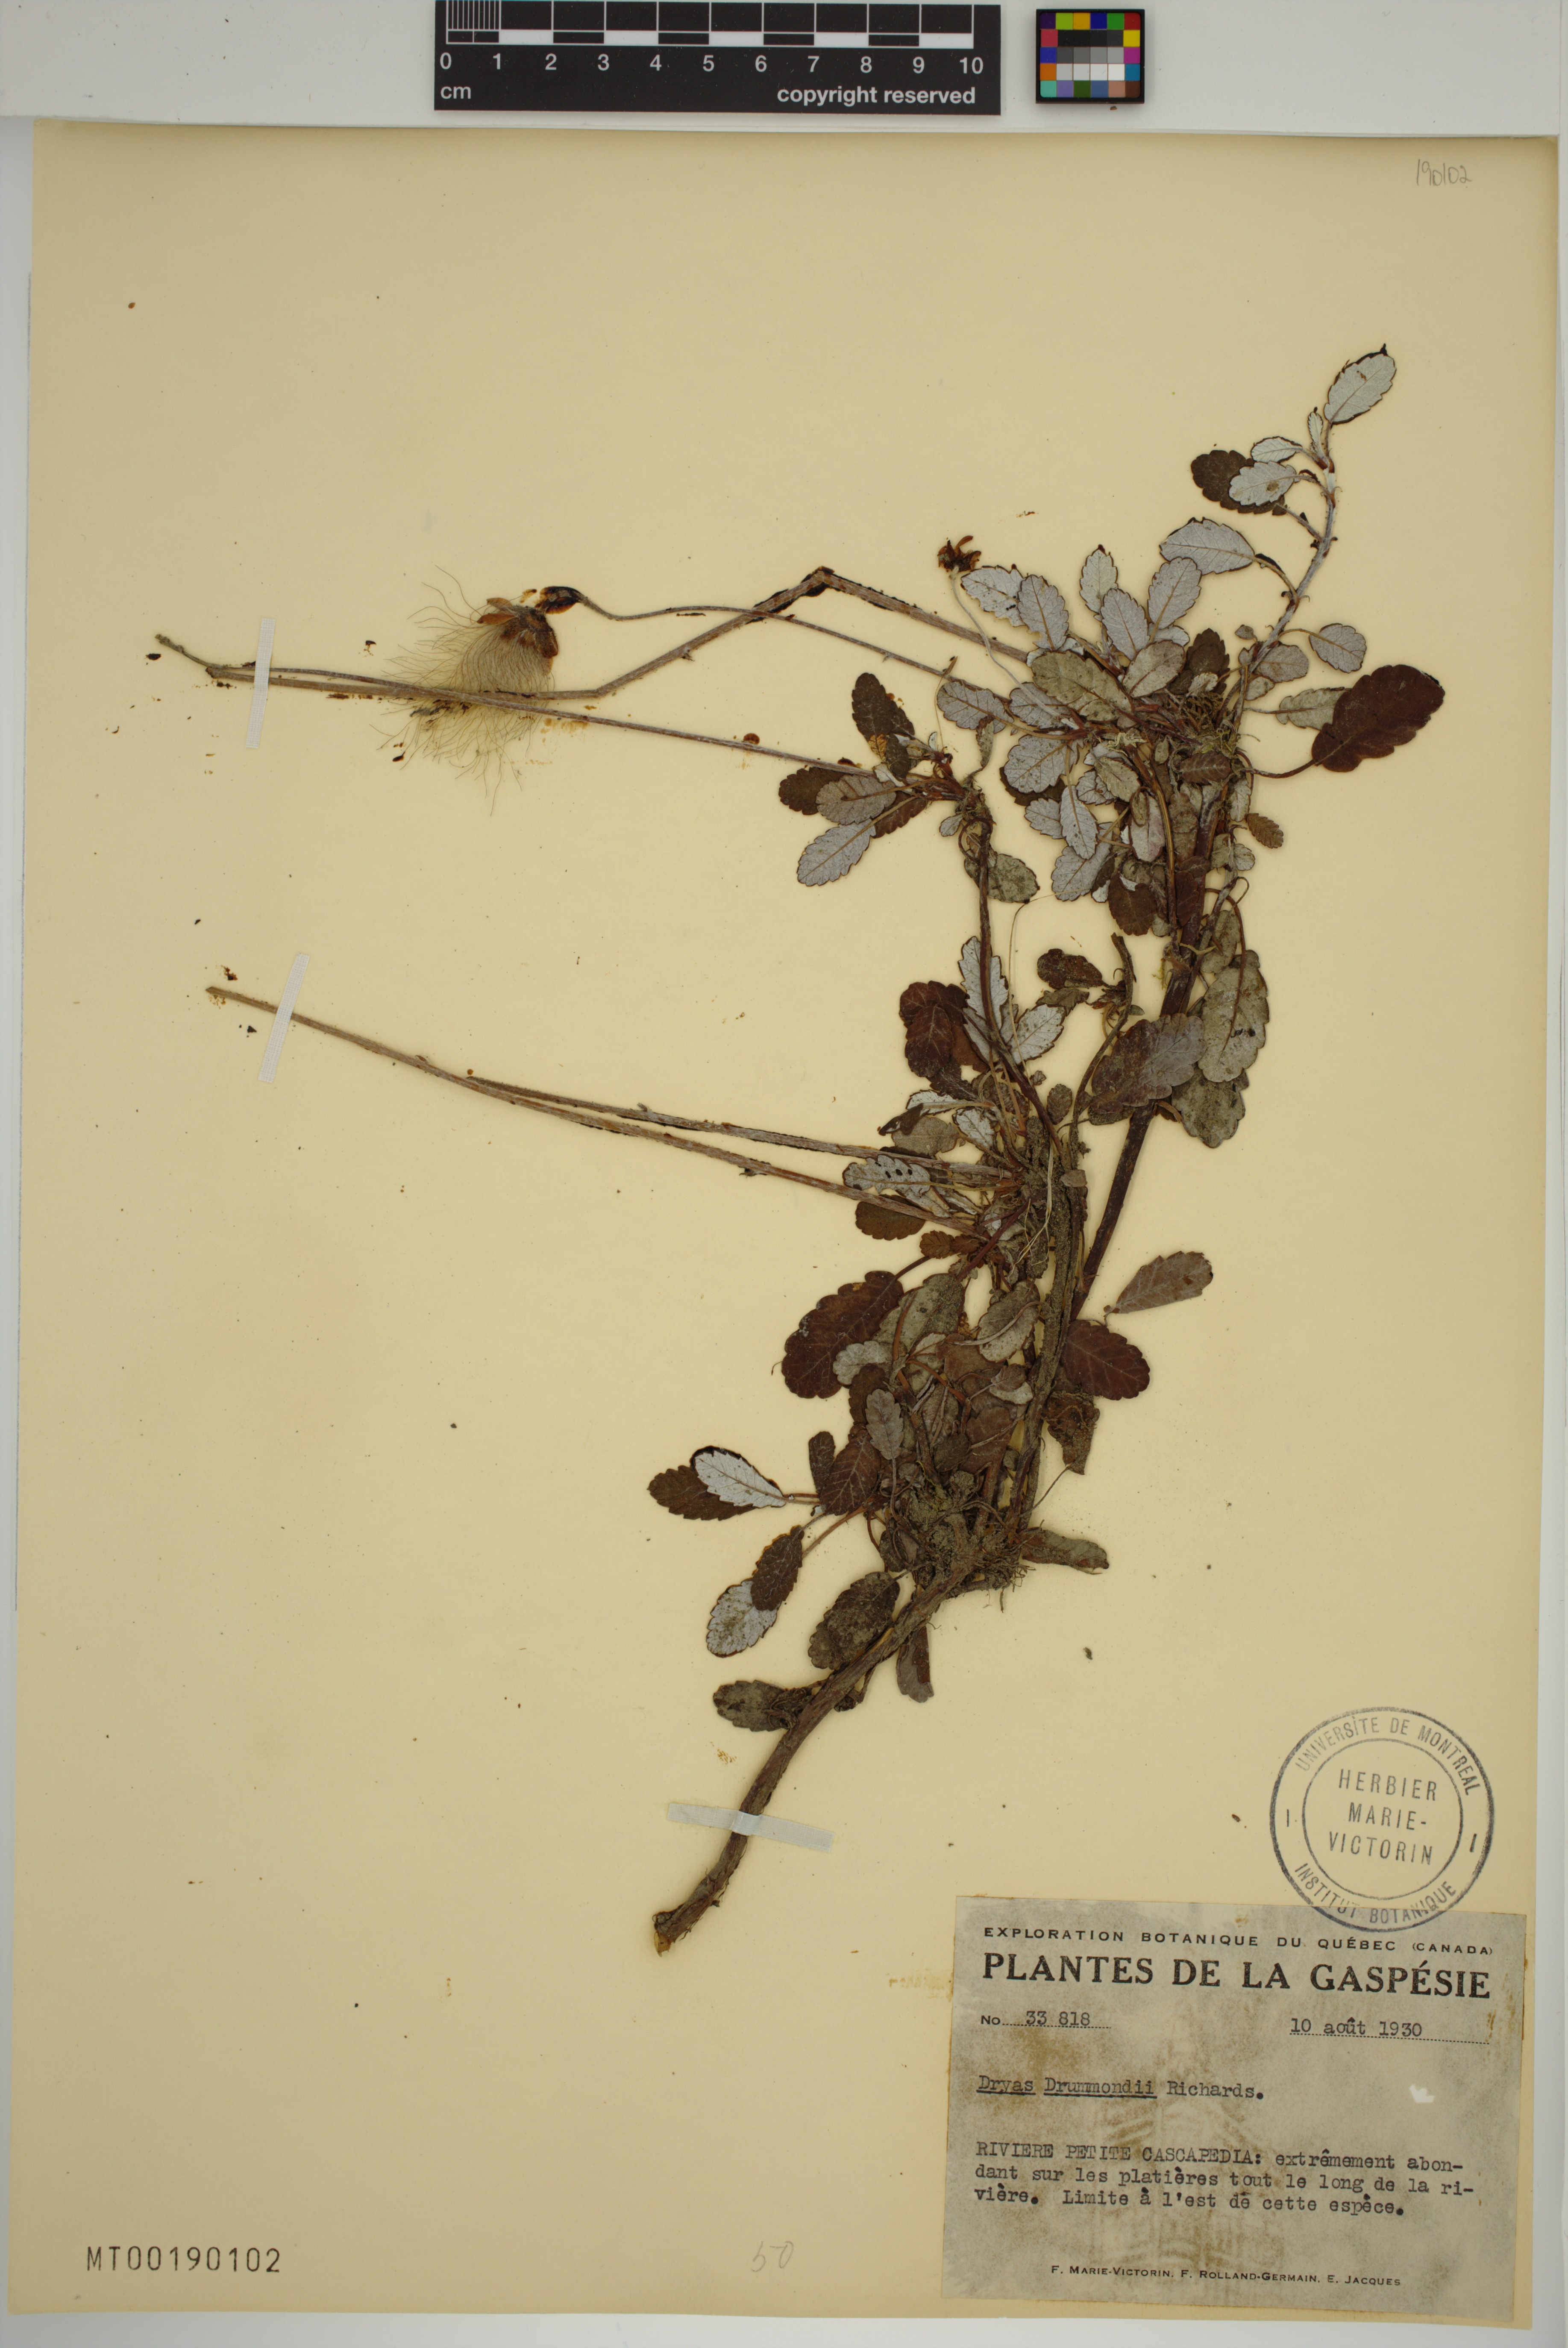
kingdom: Plantae
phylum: Tracheophyta
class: Magnoliopsida
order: Rosales
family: Rosaceae
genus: Dryas
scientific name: Dryas drummondii
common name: Drummond's dryad
